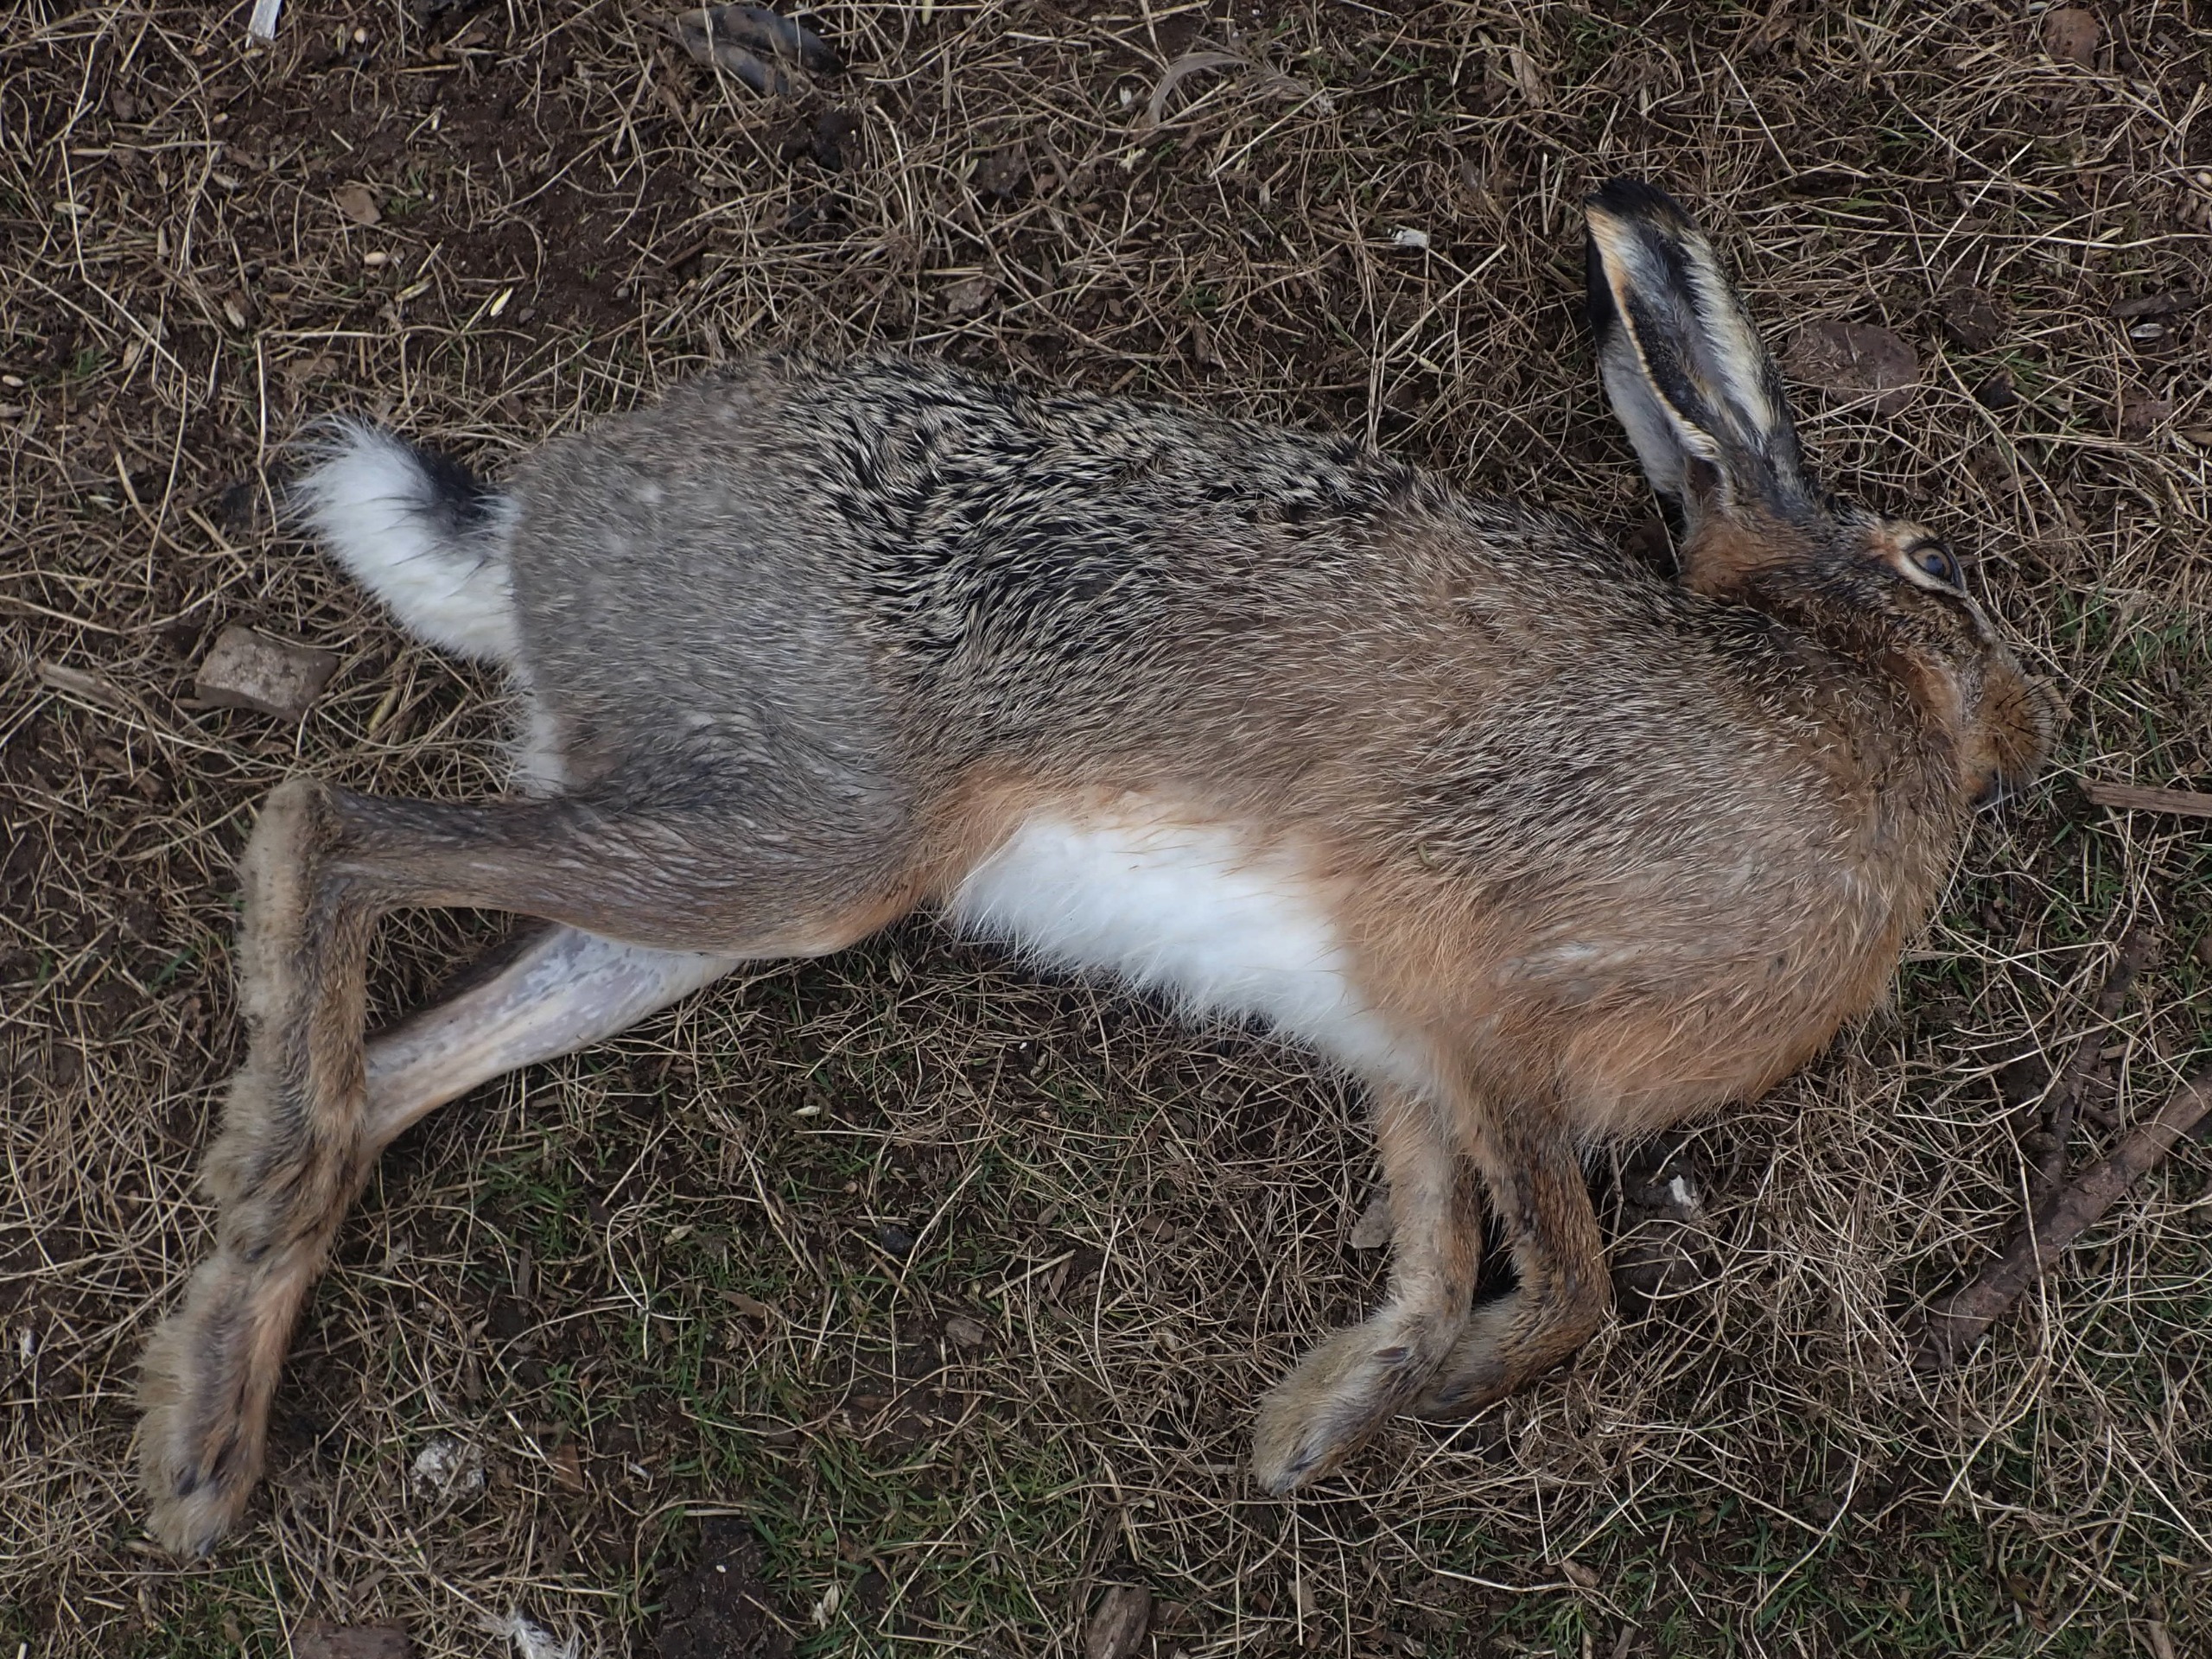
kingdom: Animalia
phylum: Chordata
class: Mammalia
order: Lagomorpha
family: Leporidae
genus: Lepus
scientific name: Lepus europaeus
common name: Hare
